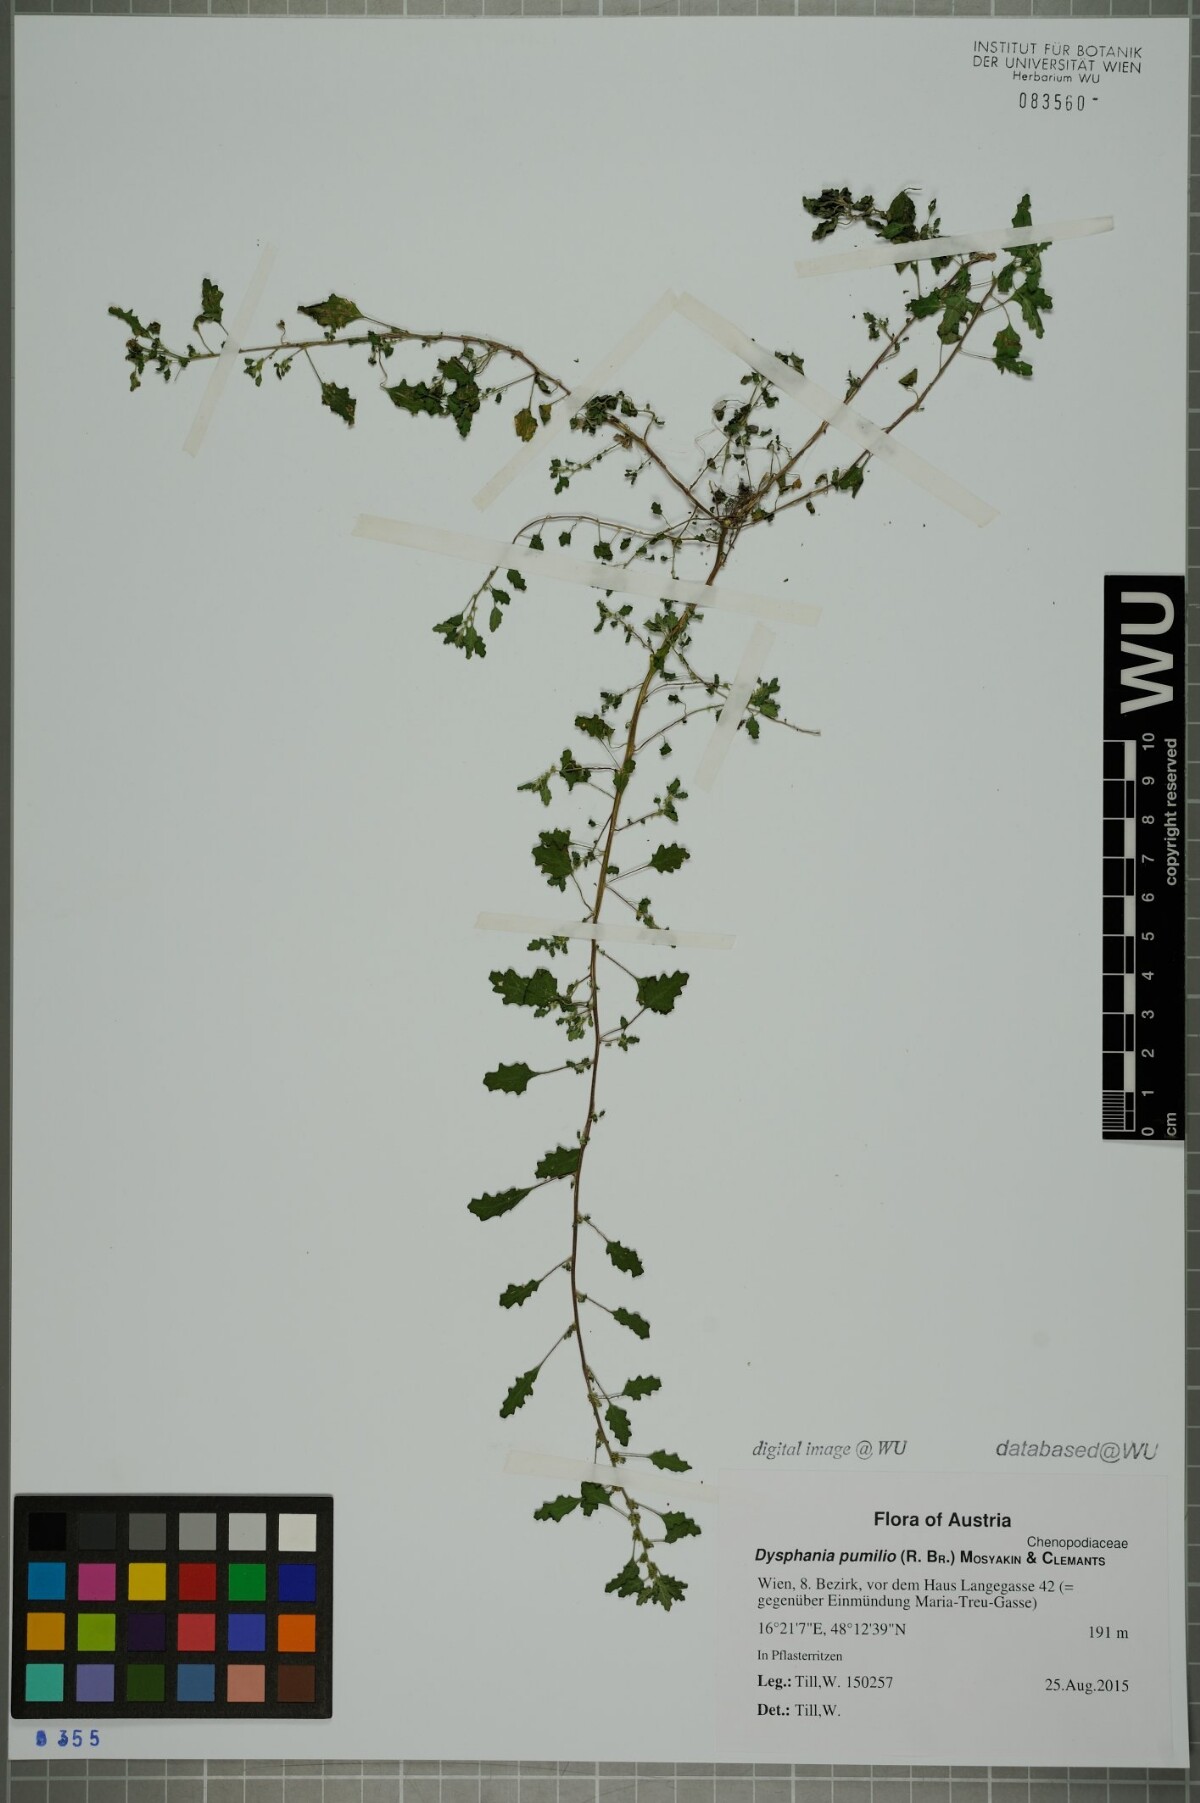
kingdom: Plantae
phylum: Tracheophyta
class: Magnoliopsida
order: Caryophyllales
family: Amaranthaceae
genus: Dysphania
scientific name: Dysphania pumilio
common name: Clammy goosefoot
